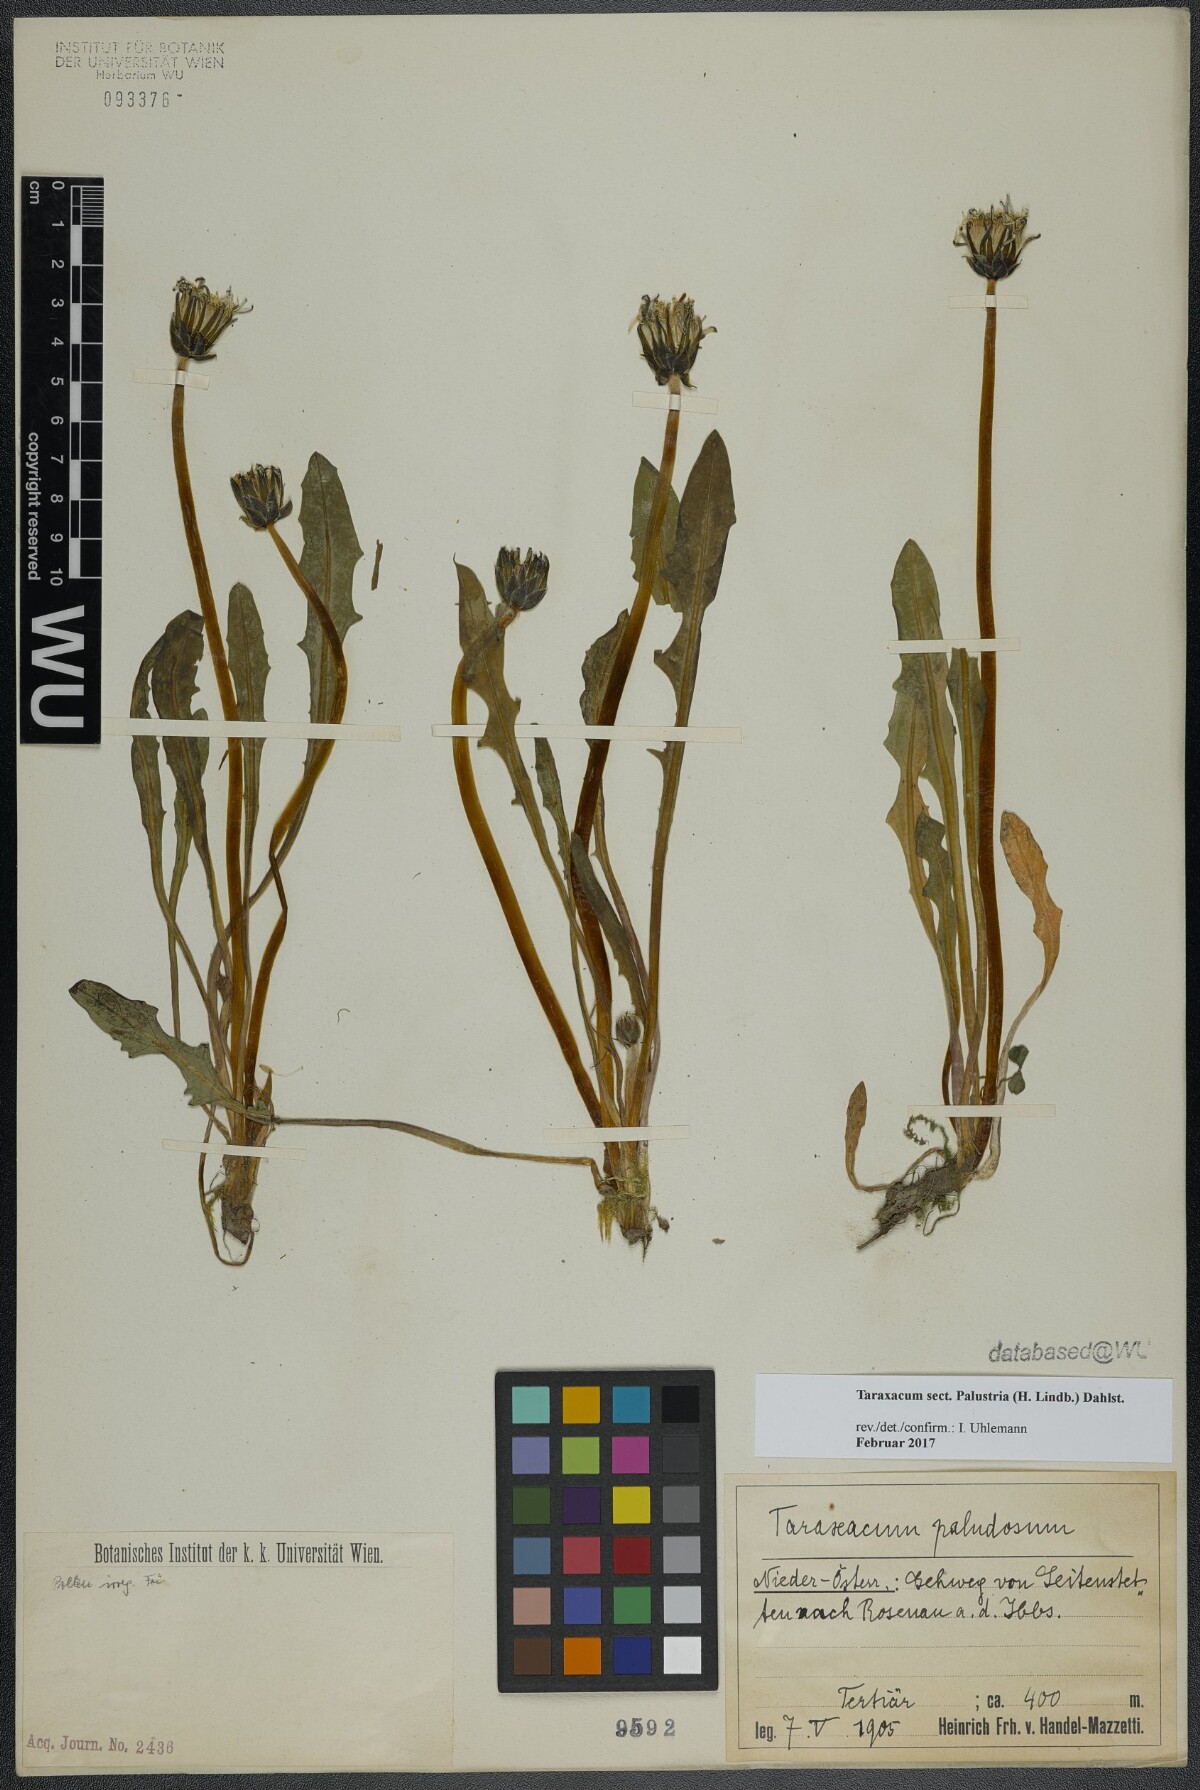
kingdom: Plantae
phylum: Tracheophyta
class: Magnoliopsida
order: Asterales
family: Asteraceae
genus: Taraxacum
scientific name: Taraxacum
